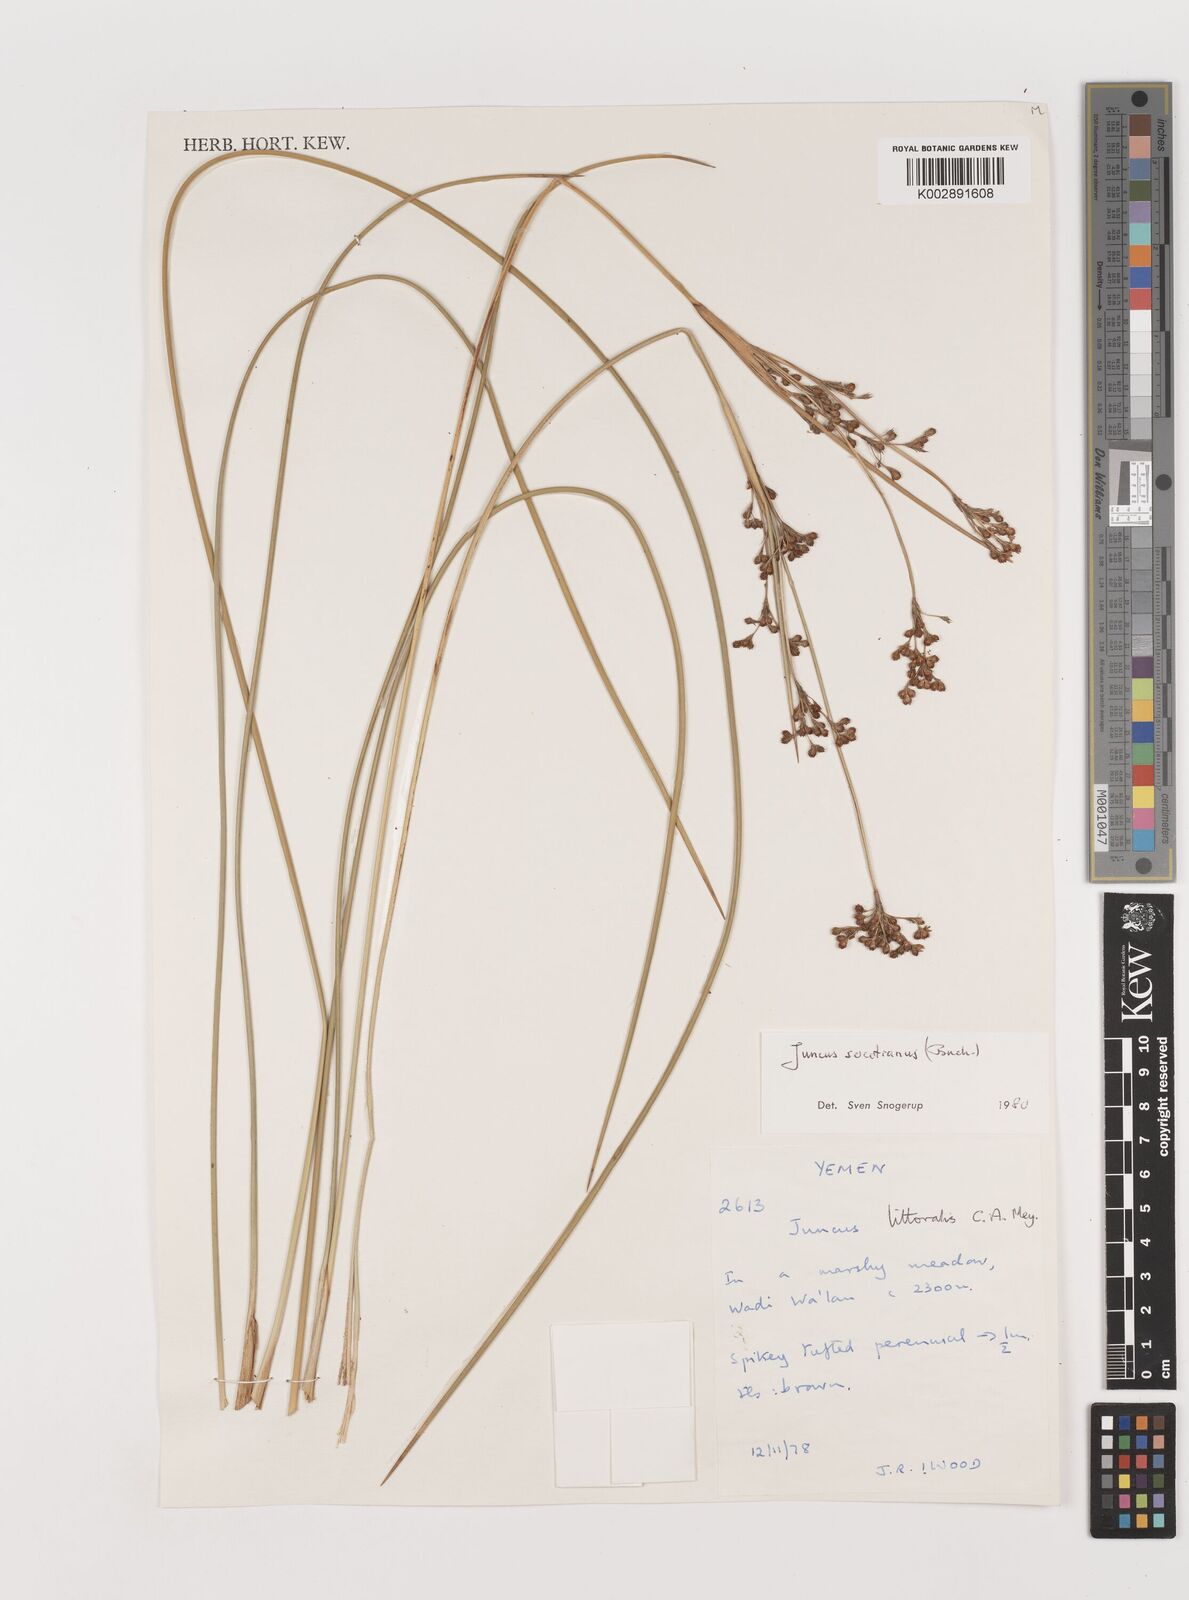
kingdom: Plantae
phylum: Tracheophyta
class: Liliopsida
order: Poales
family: Juncaceae
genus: Juncus
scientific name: Juncus socotranus
